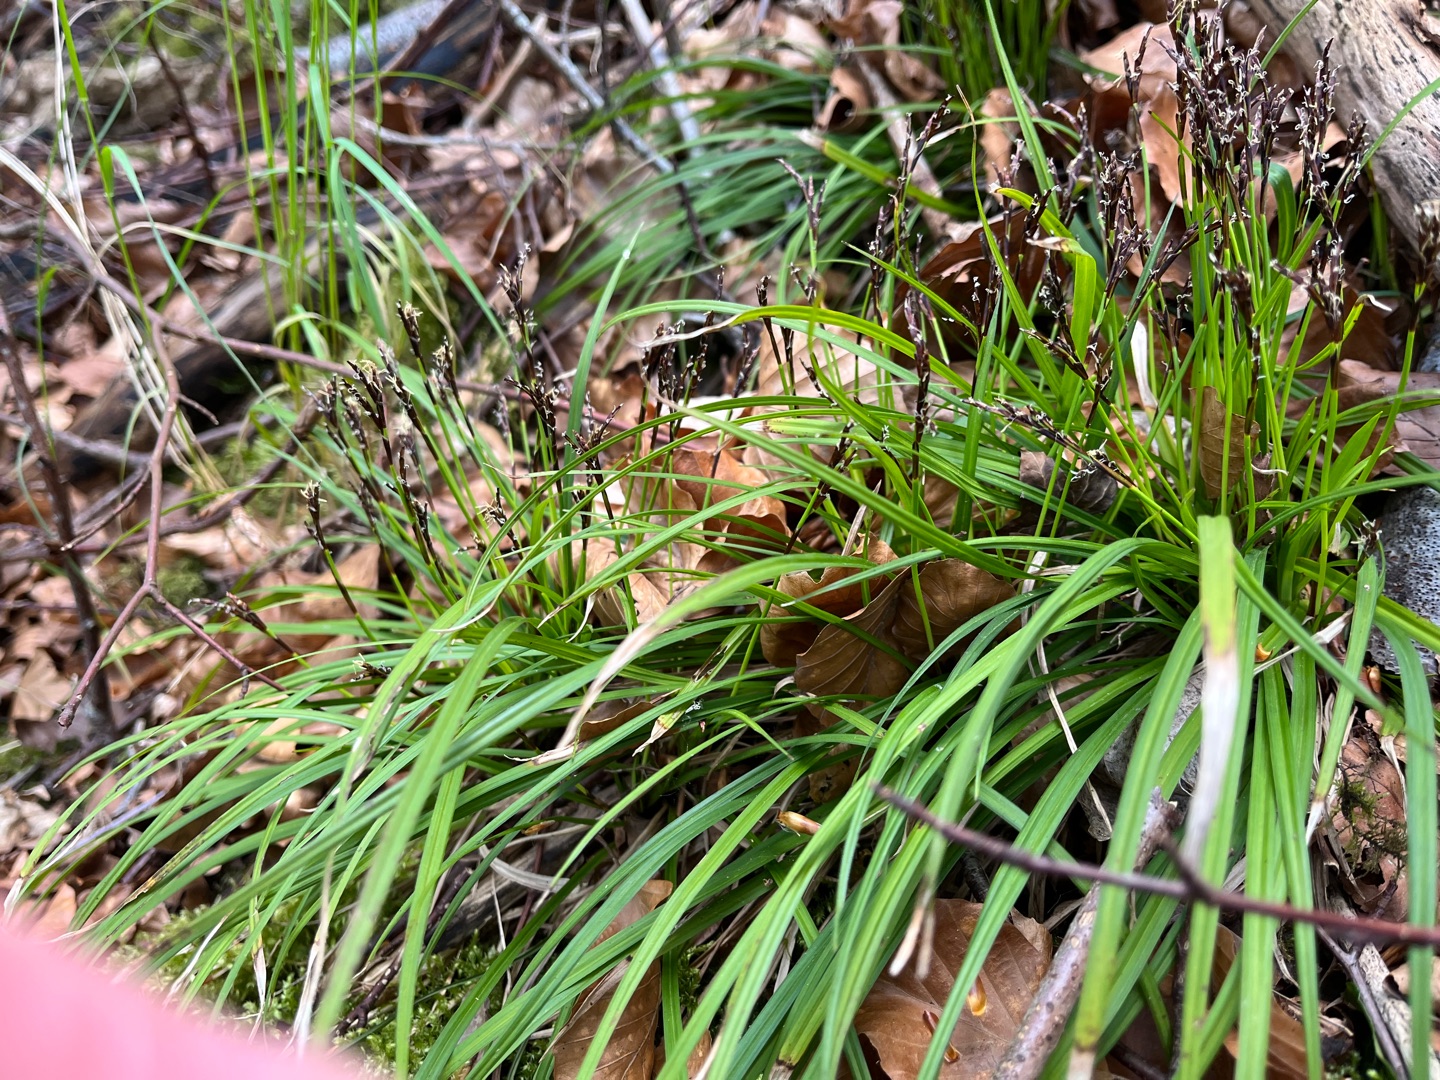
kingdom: Plantae
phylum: Tracheophyta
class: Liliopsida
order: Poales
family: Cyperaceae
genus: Carex
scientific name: Carex digitata
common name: Finger-star
